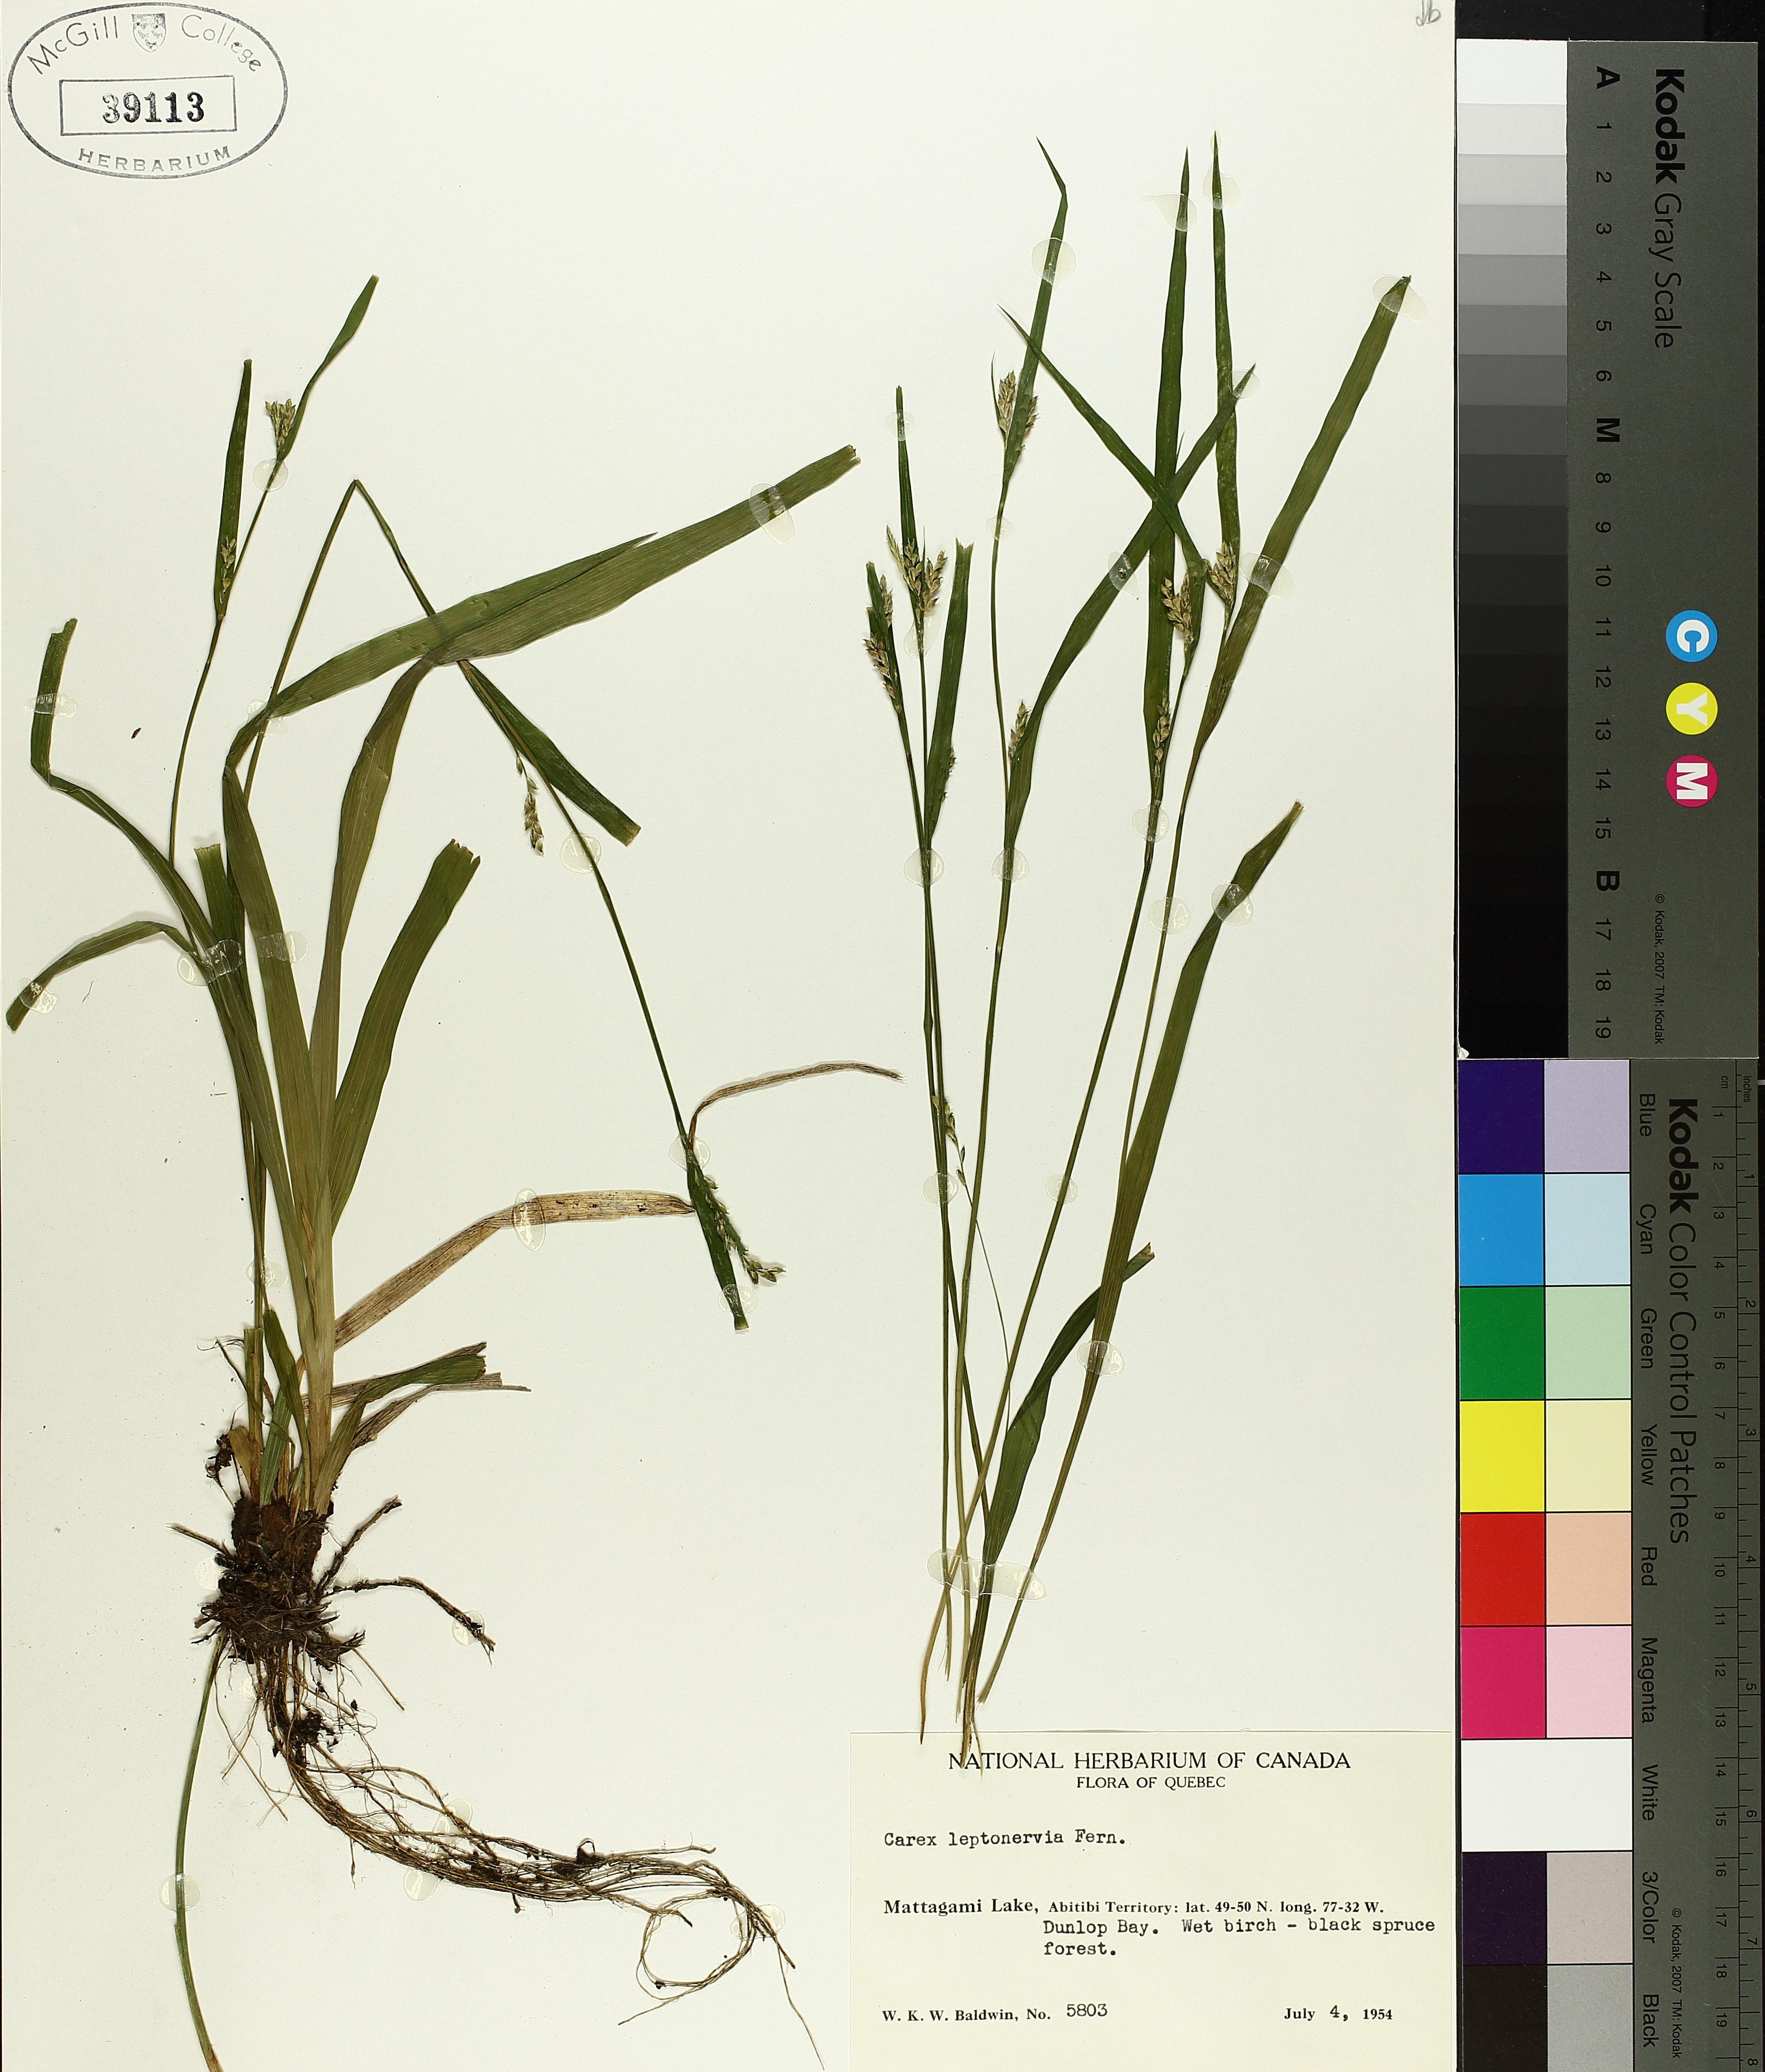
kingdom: Plantae
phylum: Tracheophyta
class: Liliopsida
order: Poales
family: Cyperaceae
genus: Carex
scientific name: Carex leptonervia
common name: Few-nerved wood sedge
